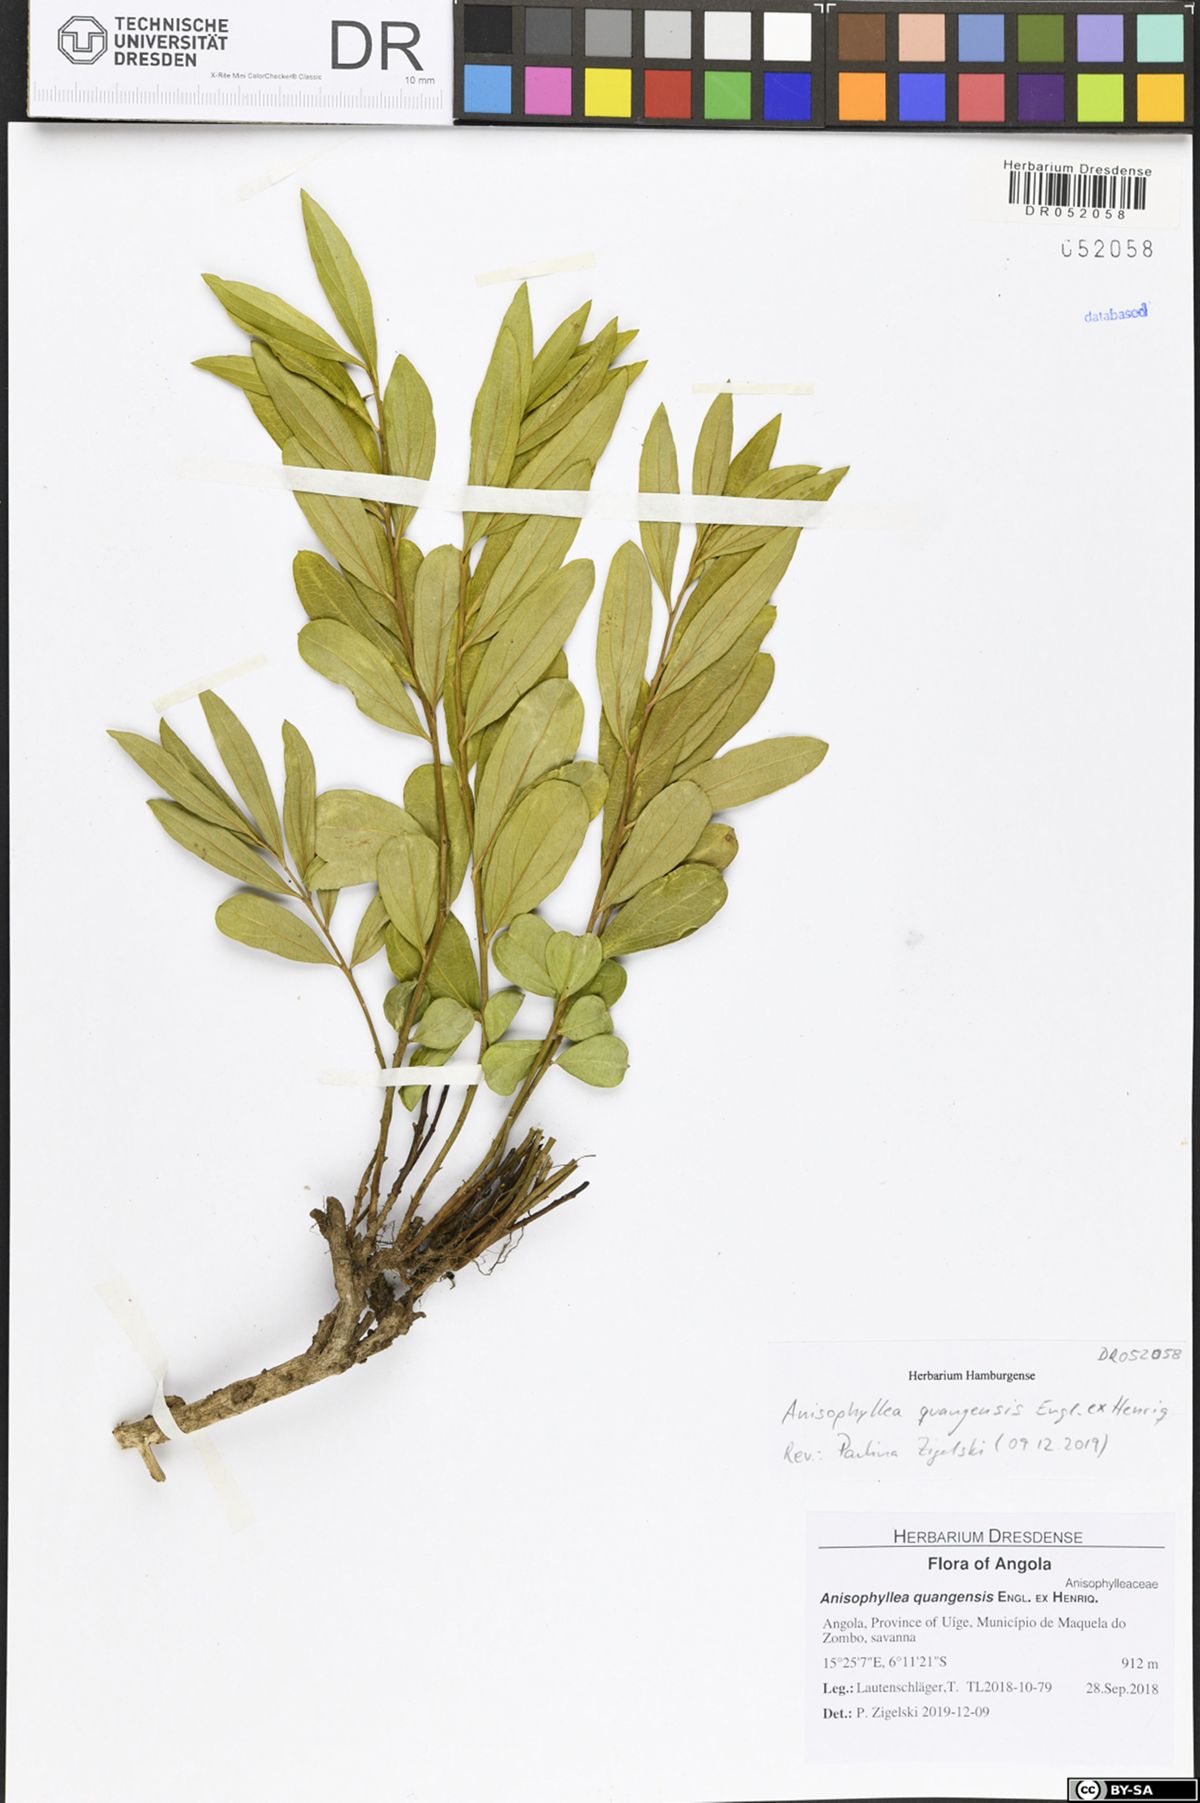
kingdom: Plantae
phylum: Tracheophyta
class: Magnoliopsida
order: Cucurbitales
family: Anisophylleaceae
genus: Anisophyllea
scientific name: Anisophyllea quangensis
